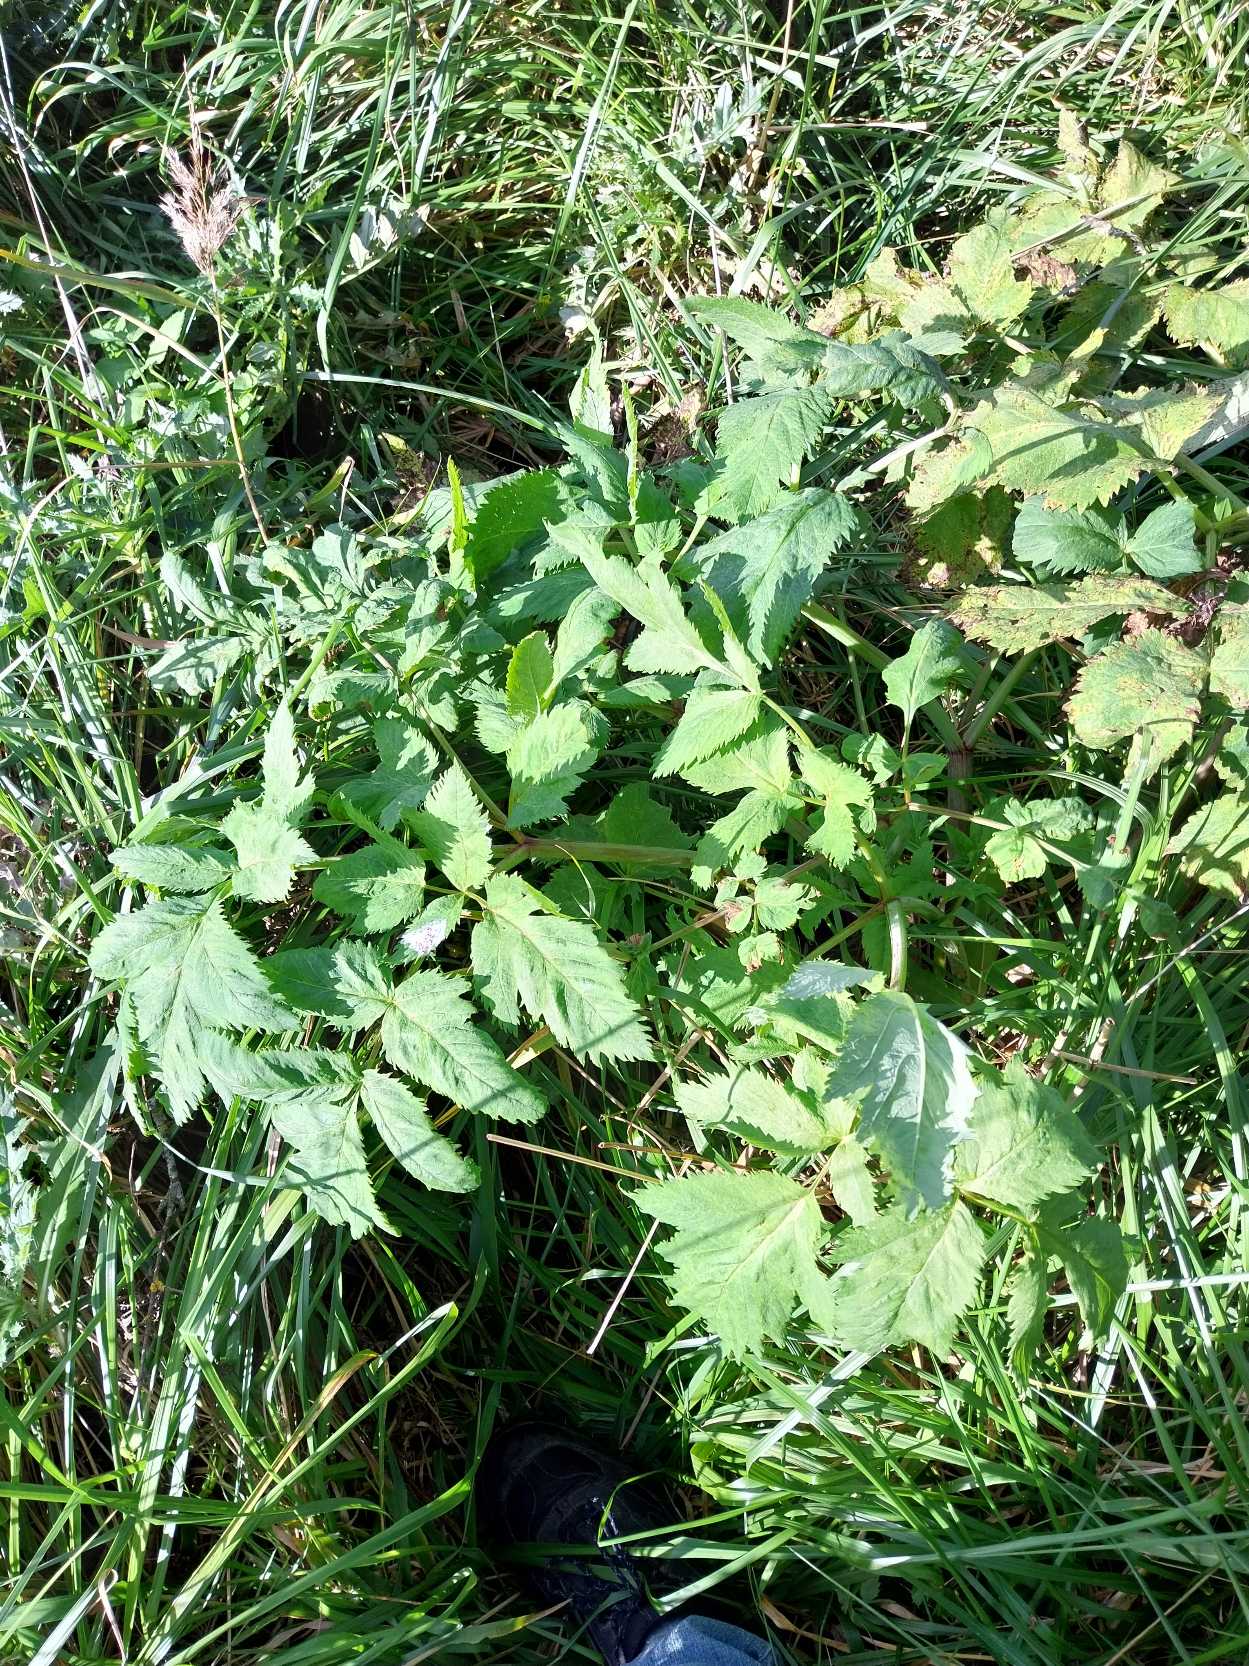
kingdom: Plantae
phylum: Tracheophyta
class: Magnoliopsida
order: Apiales
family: Apiaceae
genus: Angelica
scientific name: Angelica archangelica
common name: Kvan
